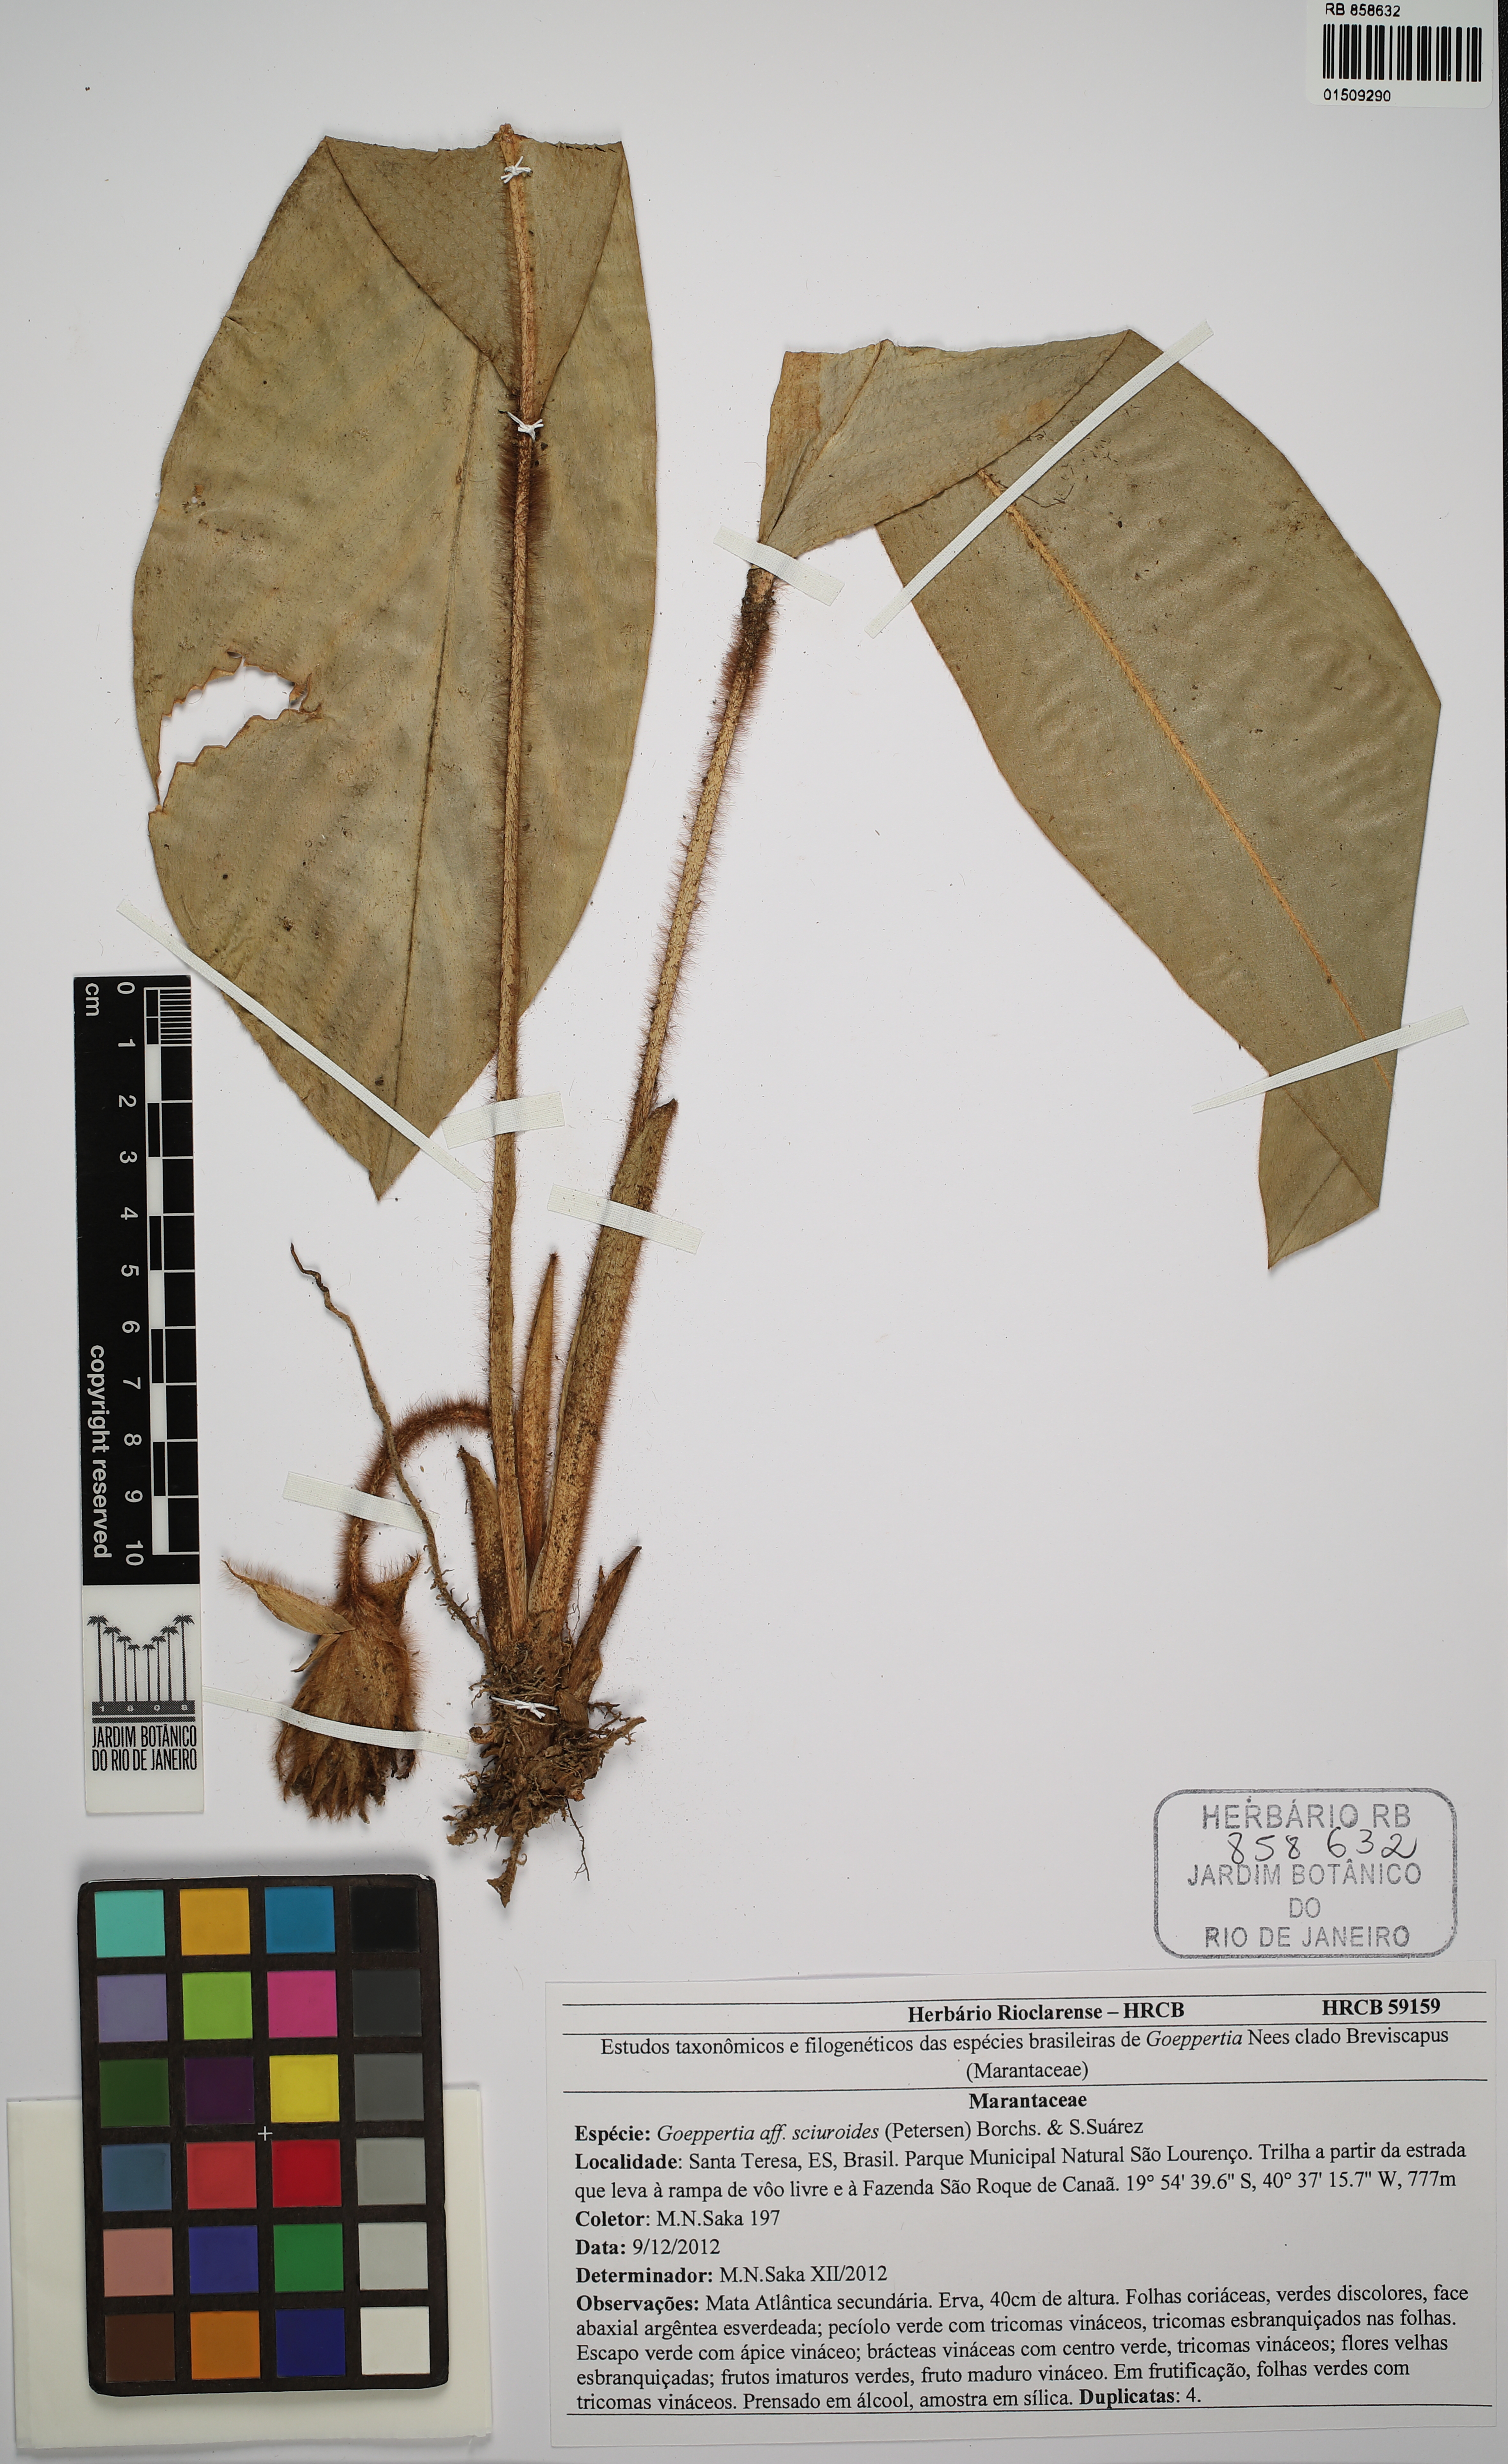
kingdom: Plantae
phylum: Tracheophyta
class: Liliopsida
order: Zingiberales
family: Marantaceae
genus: Goeppertia
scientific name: Goeppertia sciuroides
